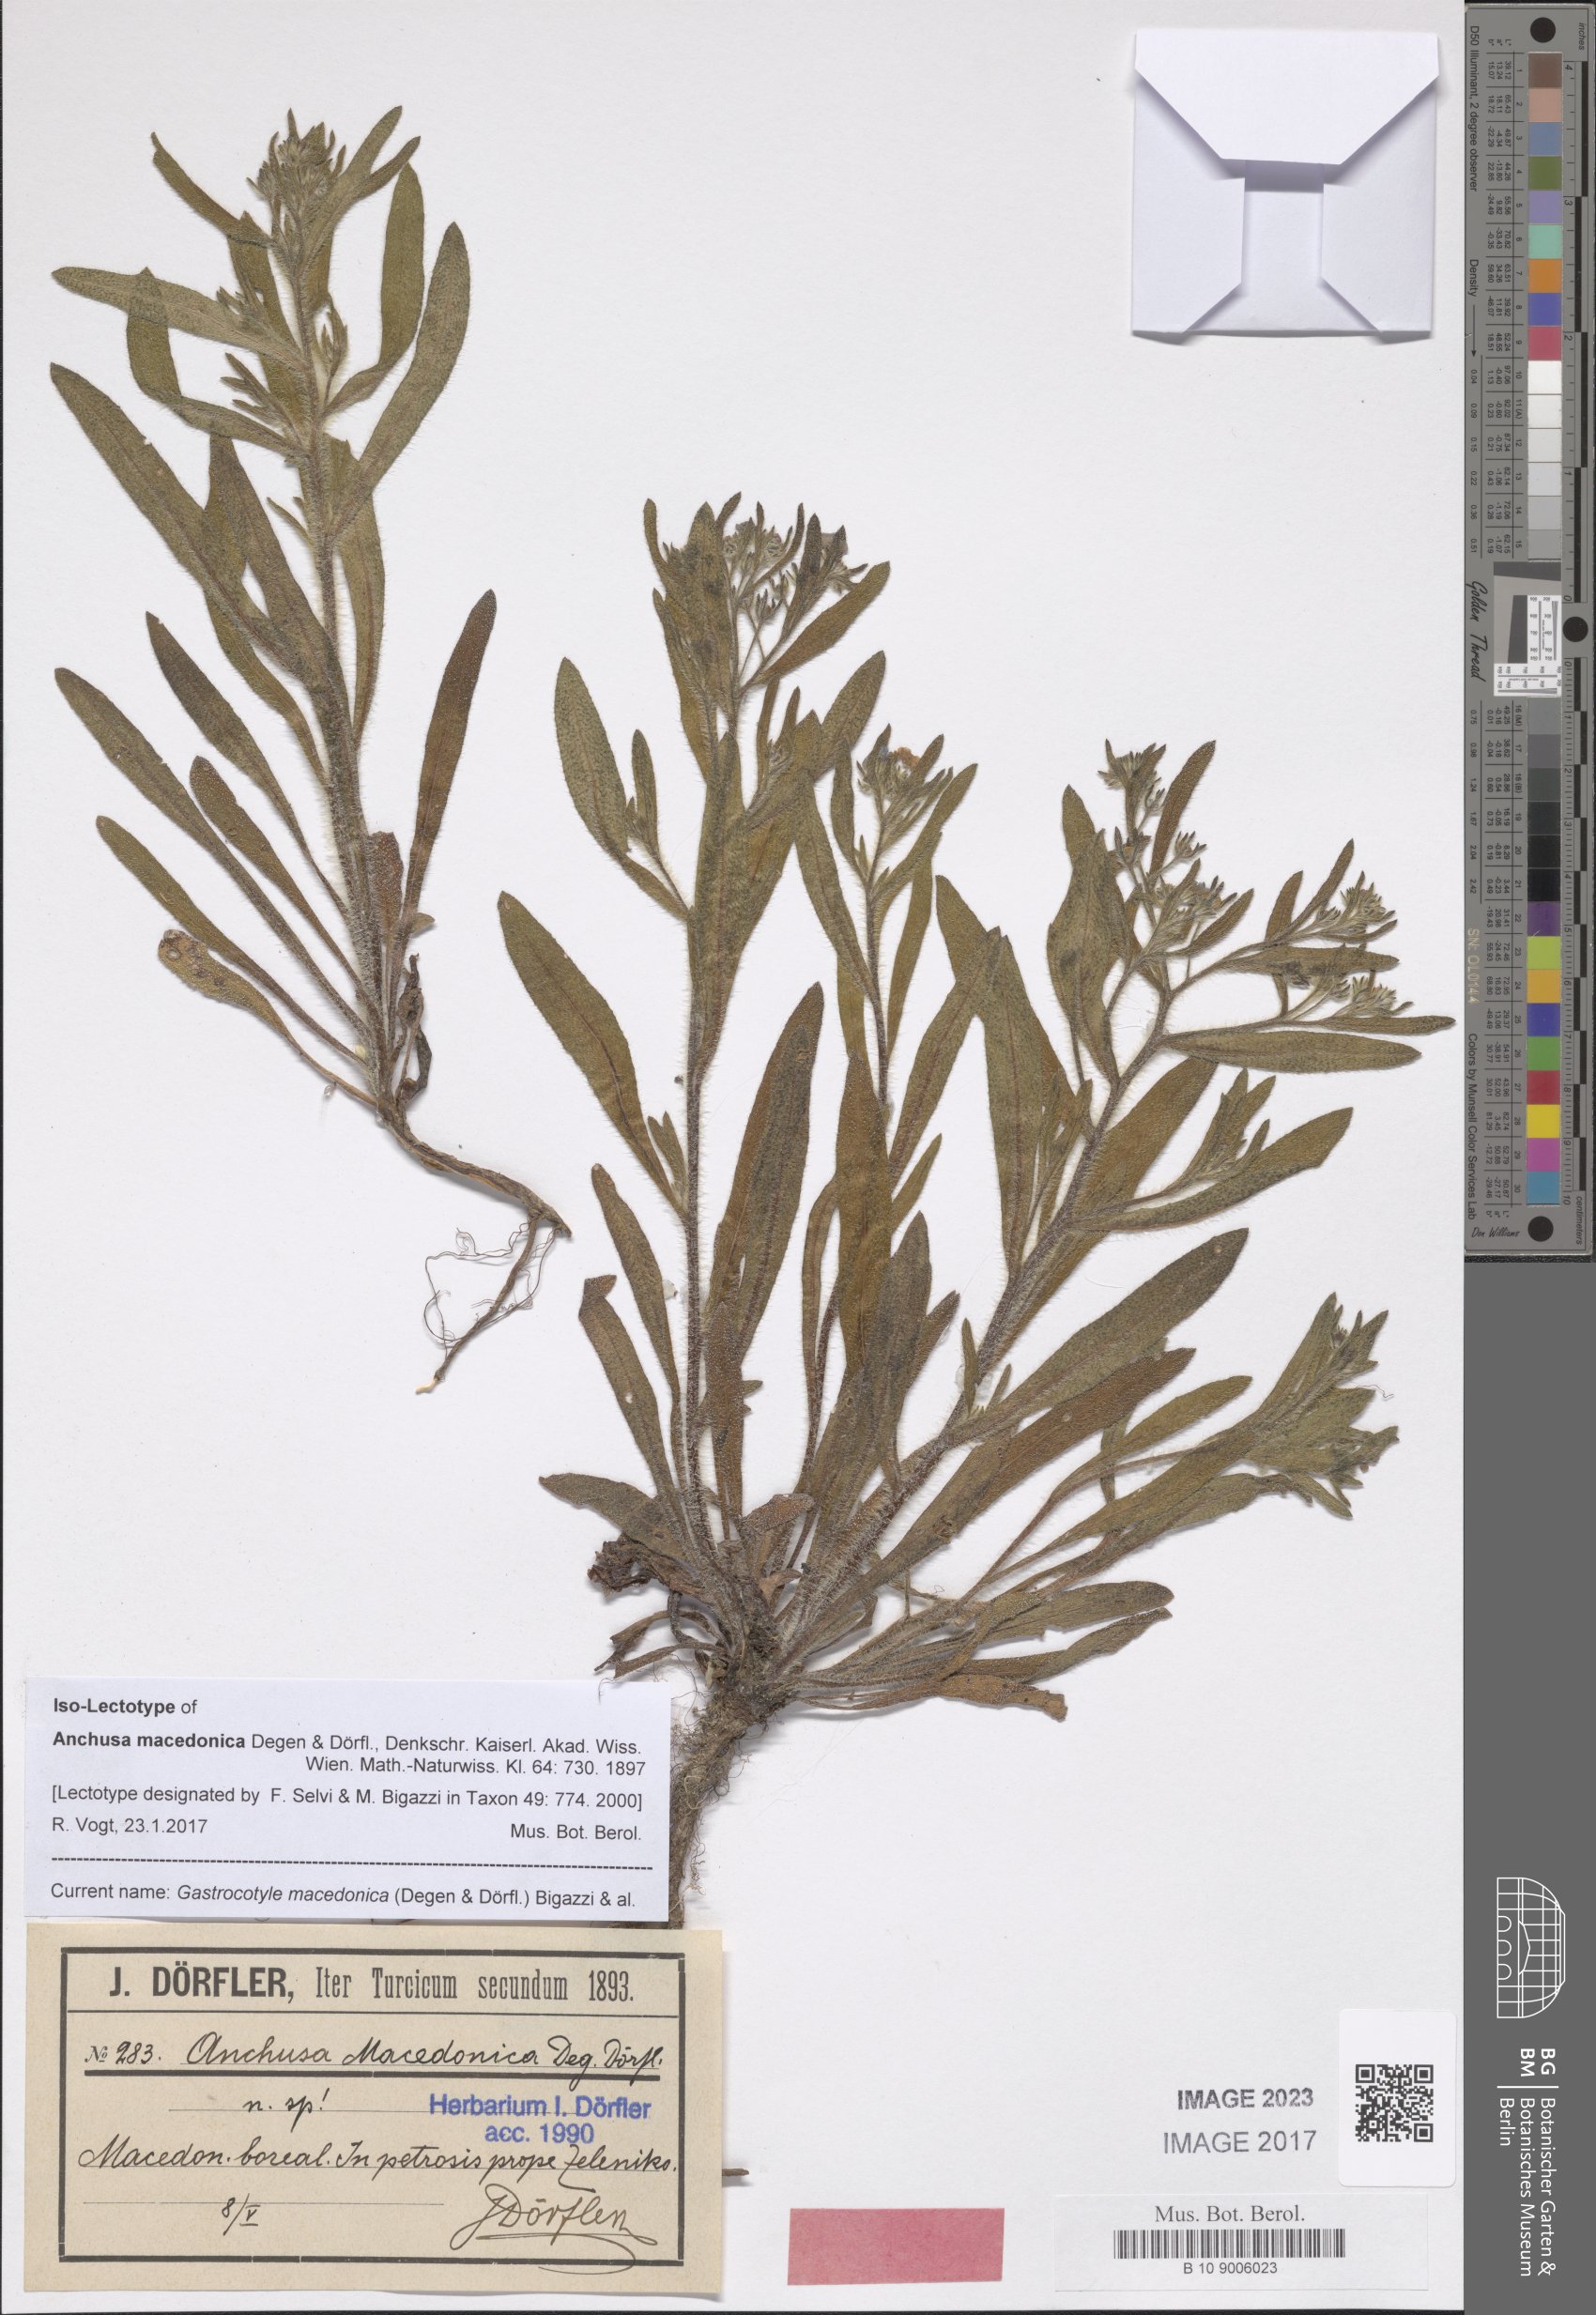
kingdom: Plantae
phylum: Tracheophyta
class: Magnoliopsida
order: Boraginales
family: Boraginaceae
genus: Gastrocotyle
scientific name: Gastrocotyle macedonica
